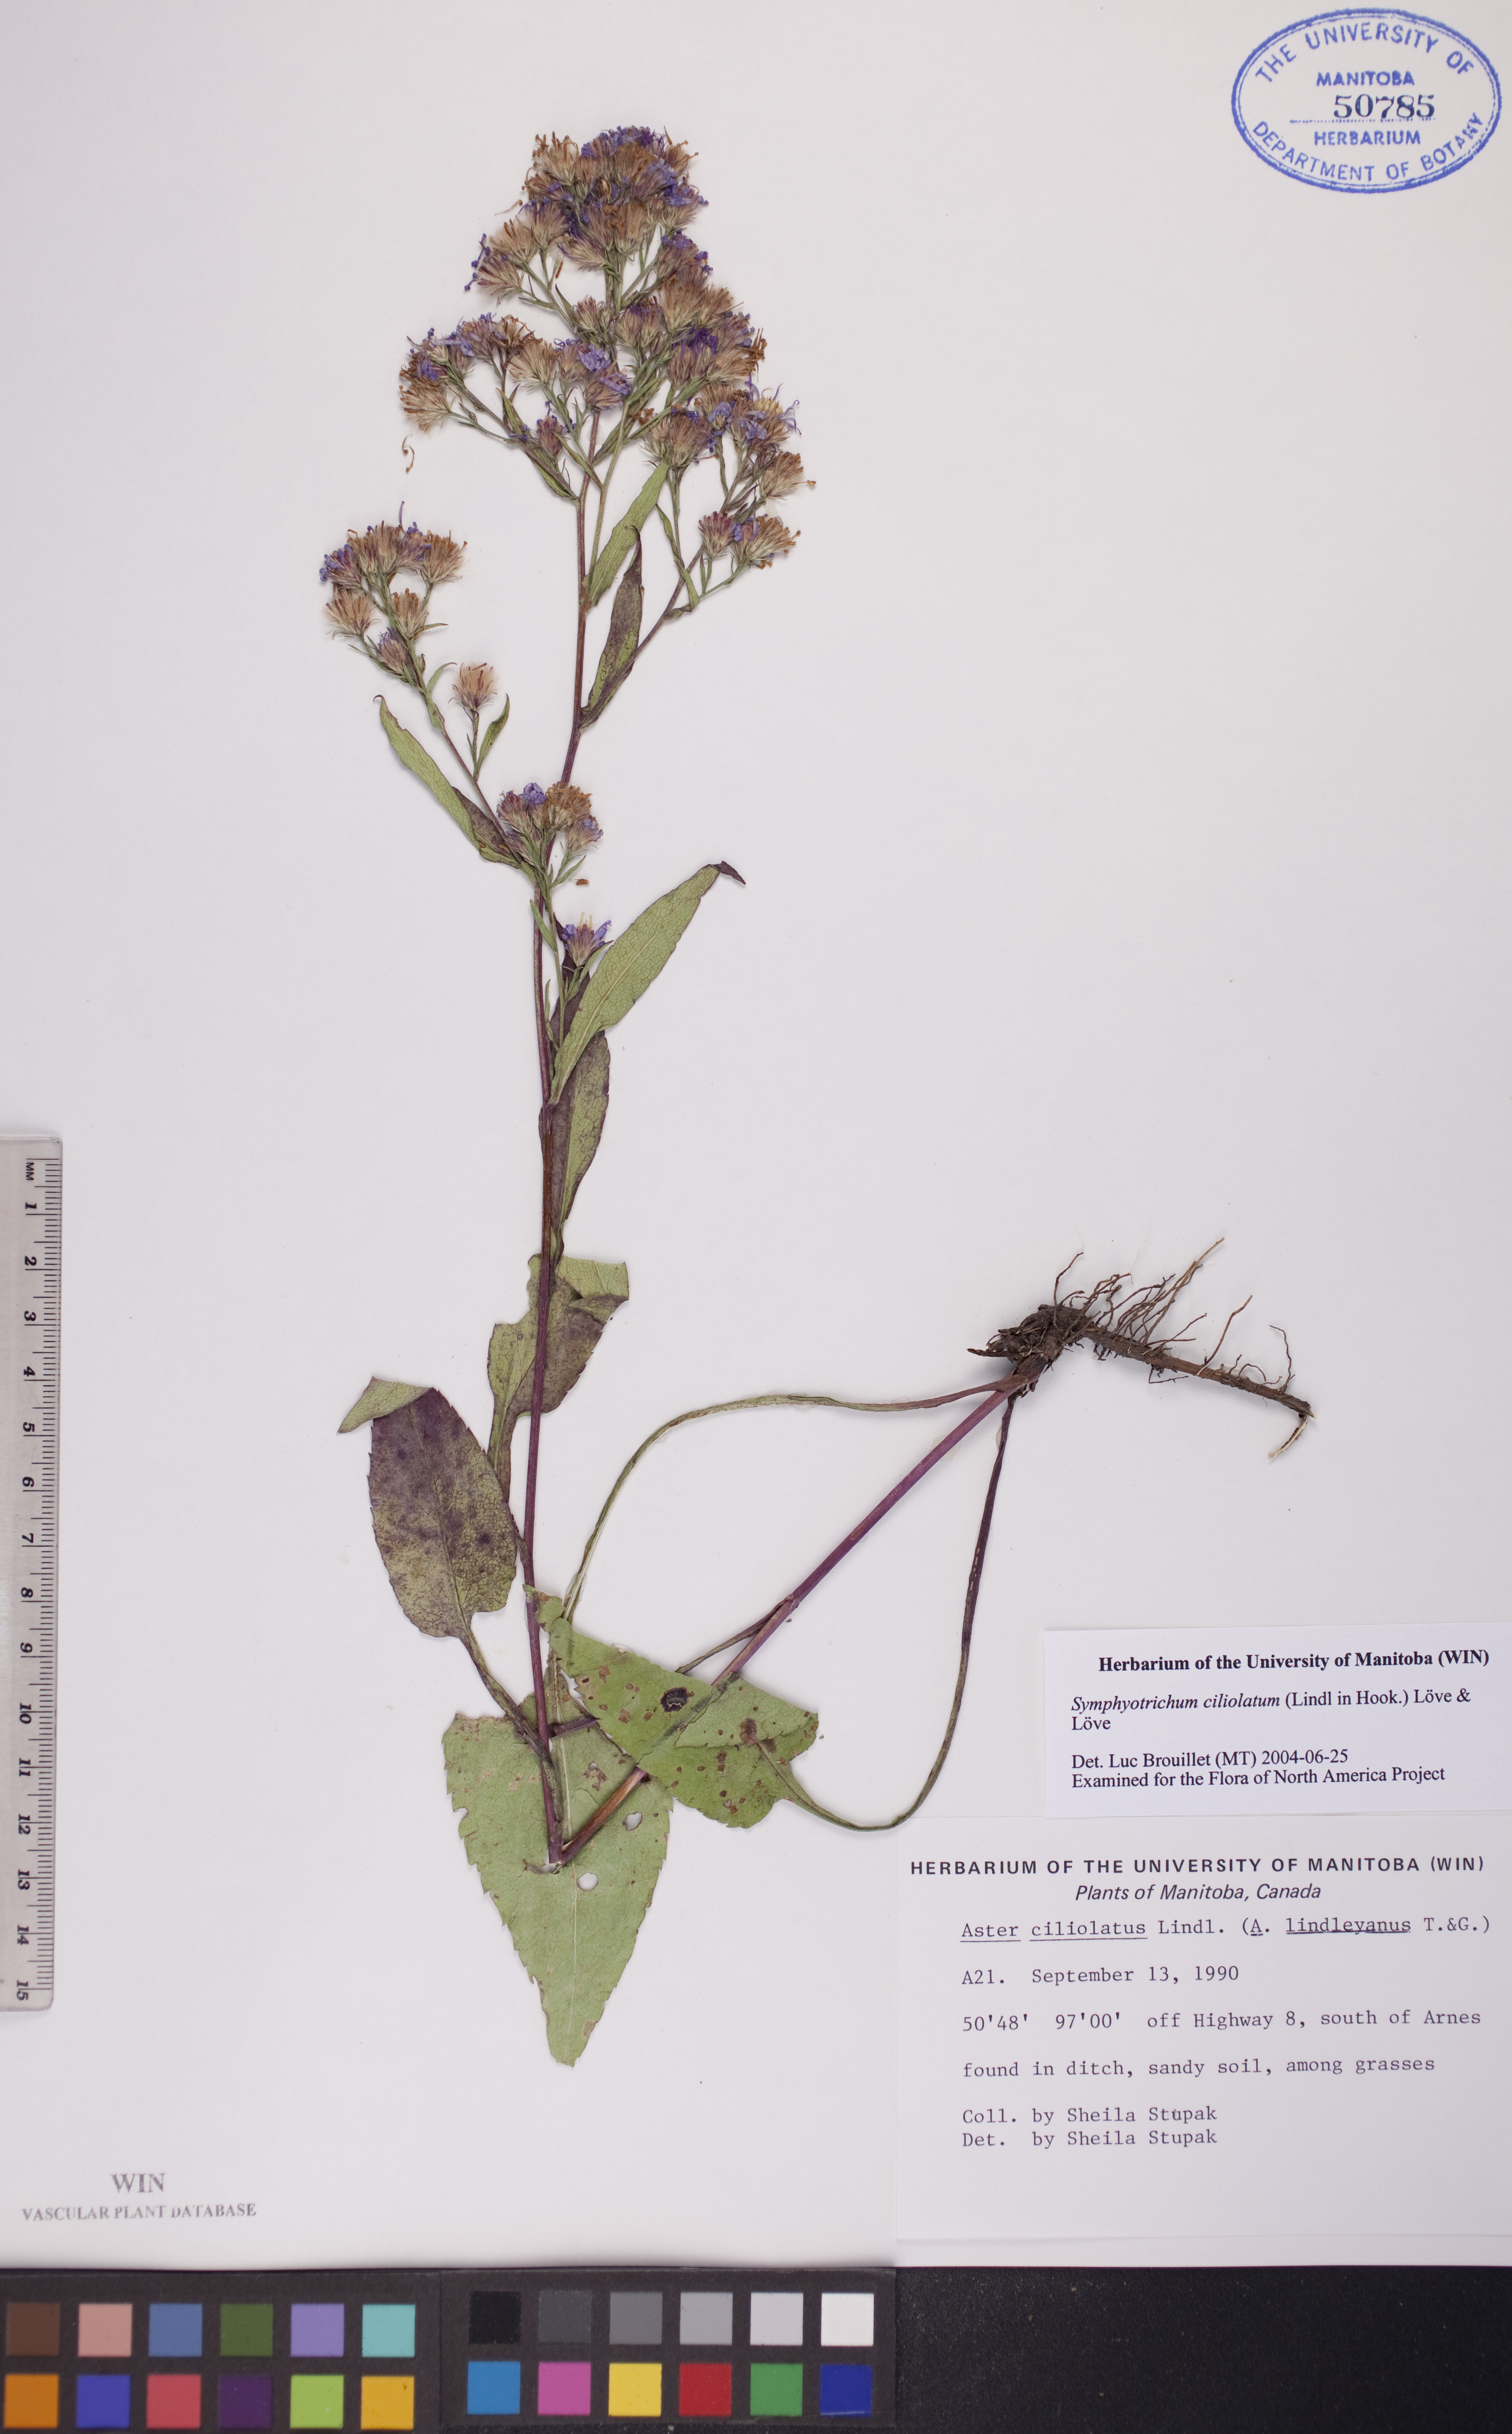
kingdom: Plantae
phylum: Tracheophyta
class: Magnoliopsida
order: Asterales
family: Asteraceae
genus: Symphyotrichum
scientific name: Symphyotrichum ciliolatum
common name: Fringed blue aster
